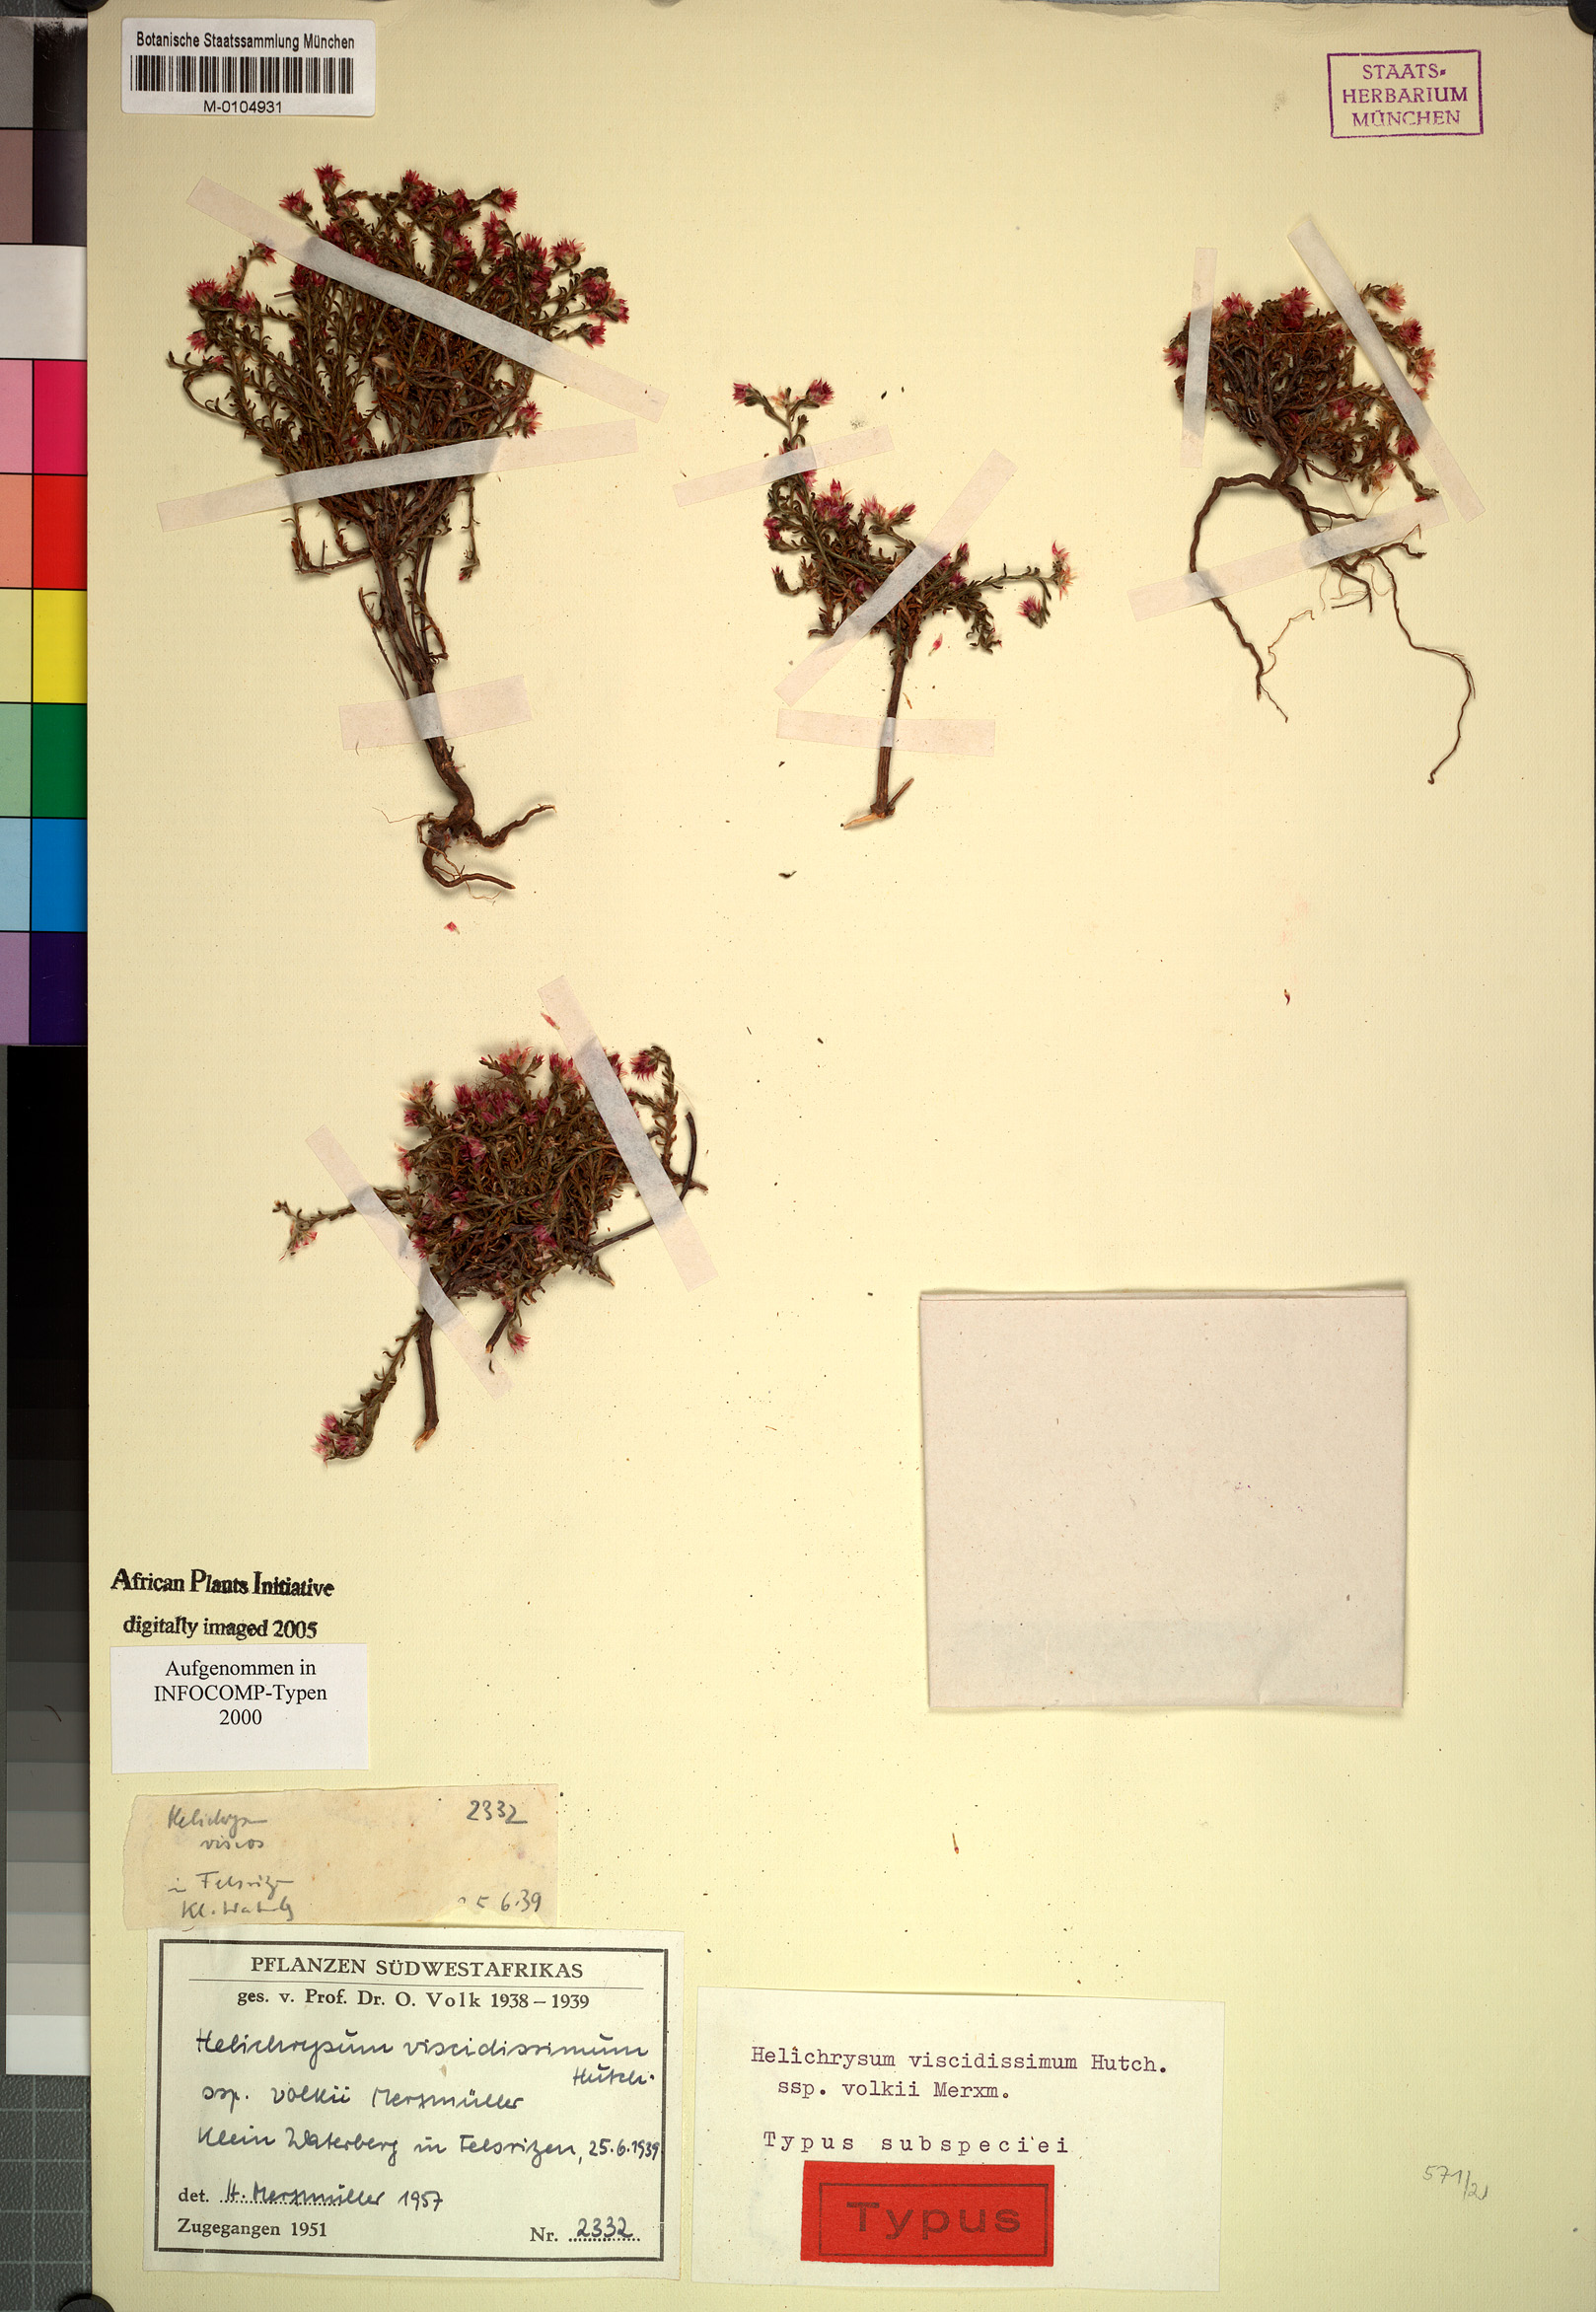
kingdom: Plantae
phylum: Tracheophyta
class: Magnoliopsida
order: Asterales
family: Asteraceae
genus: Helichrysum
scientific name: Helichrysum pumilio
